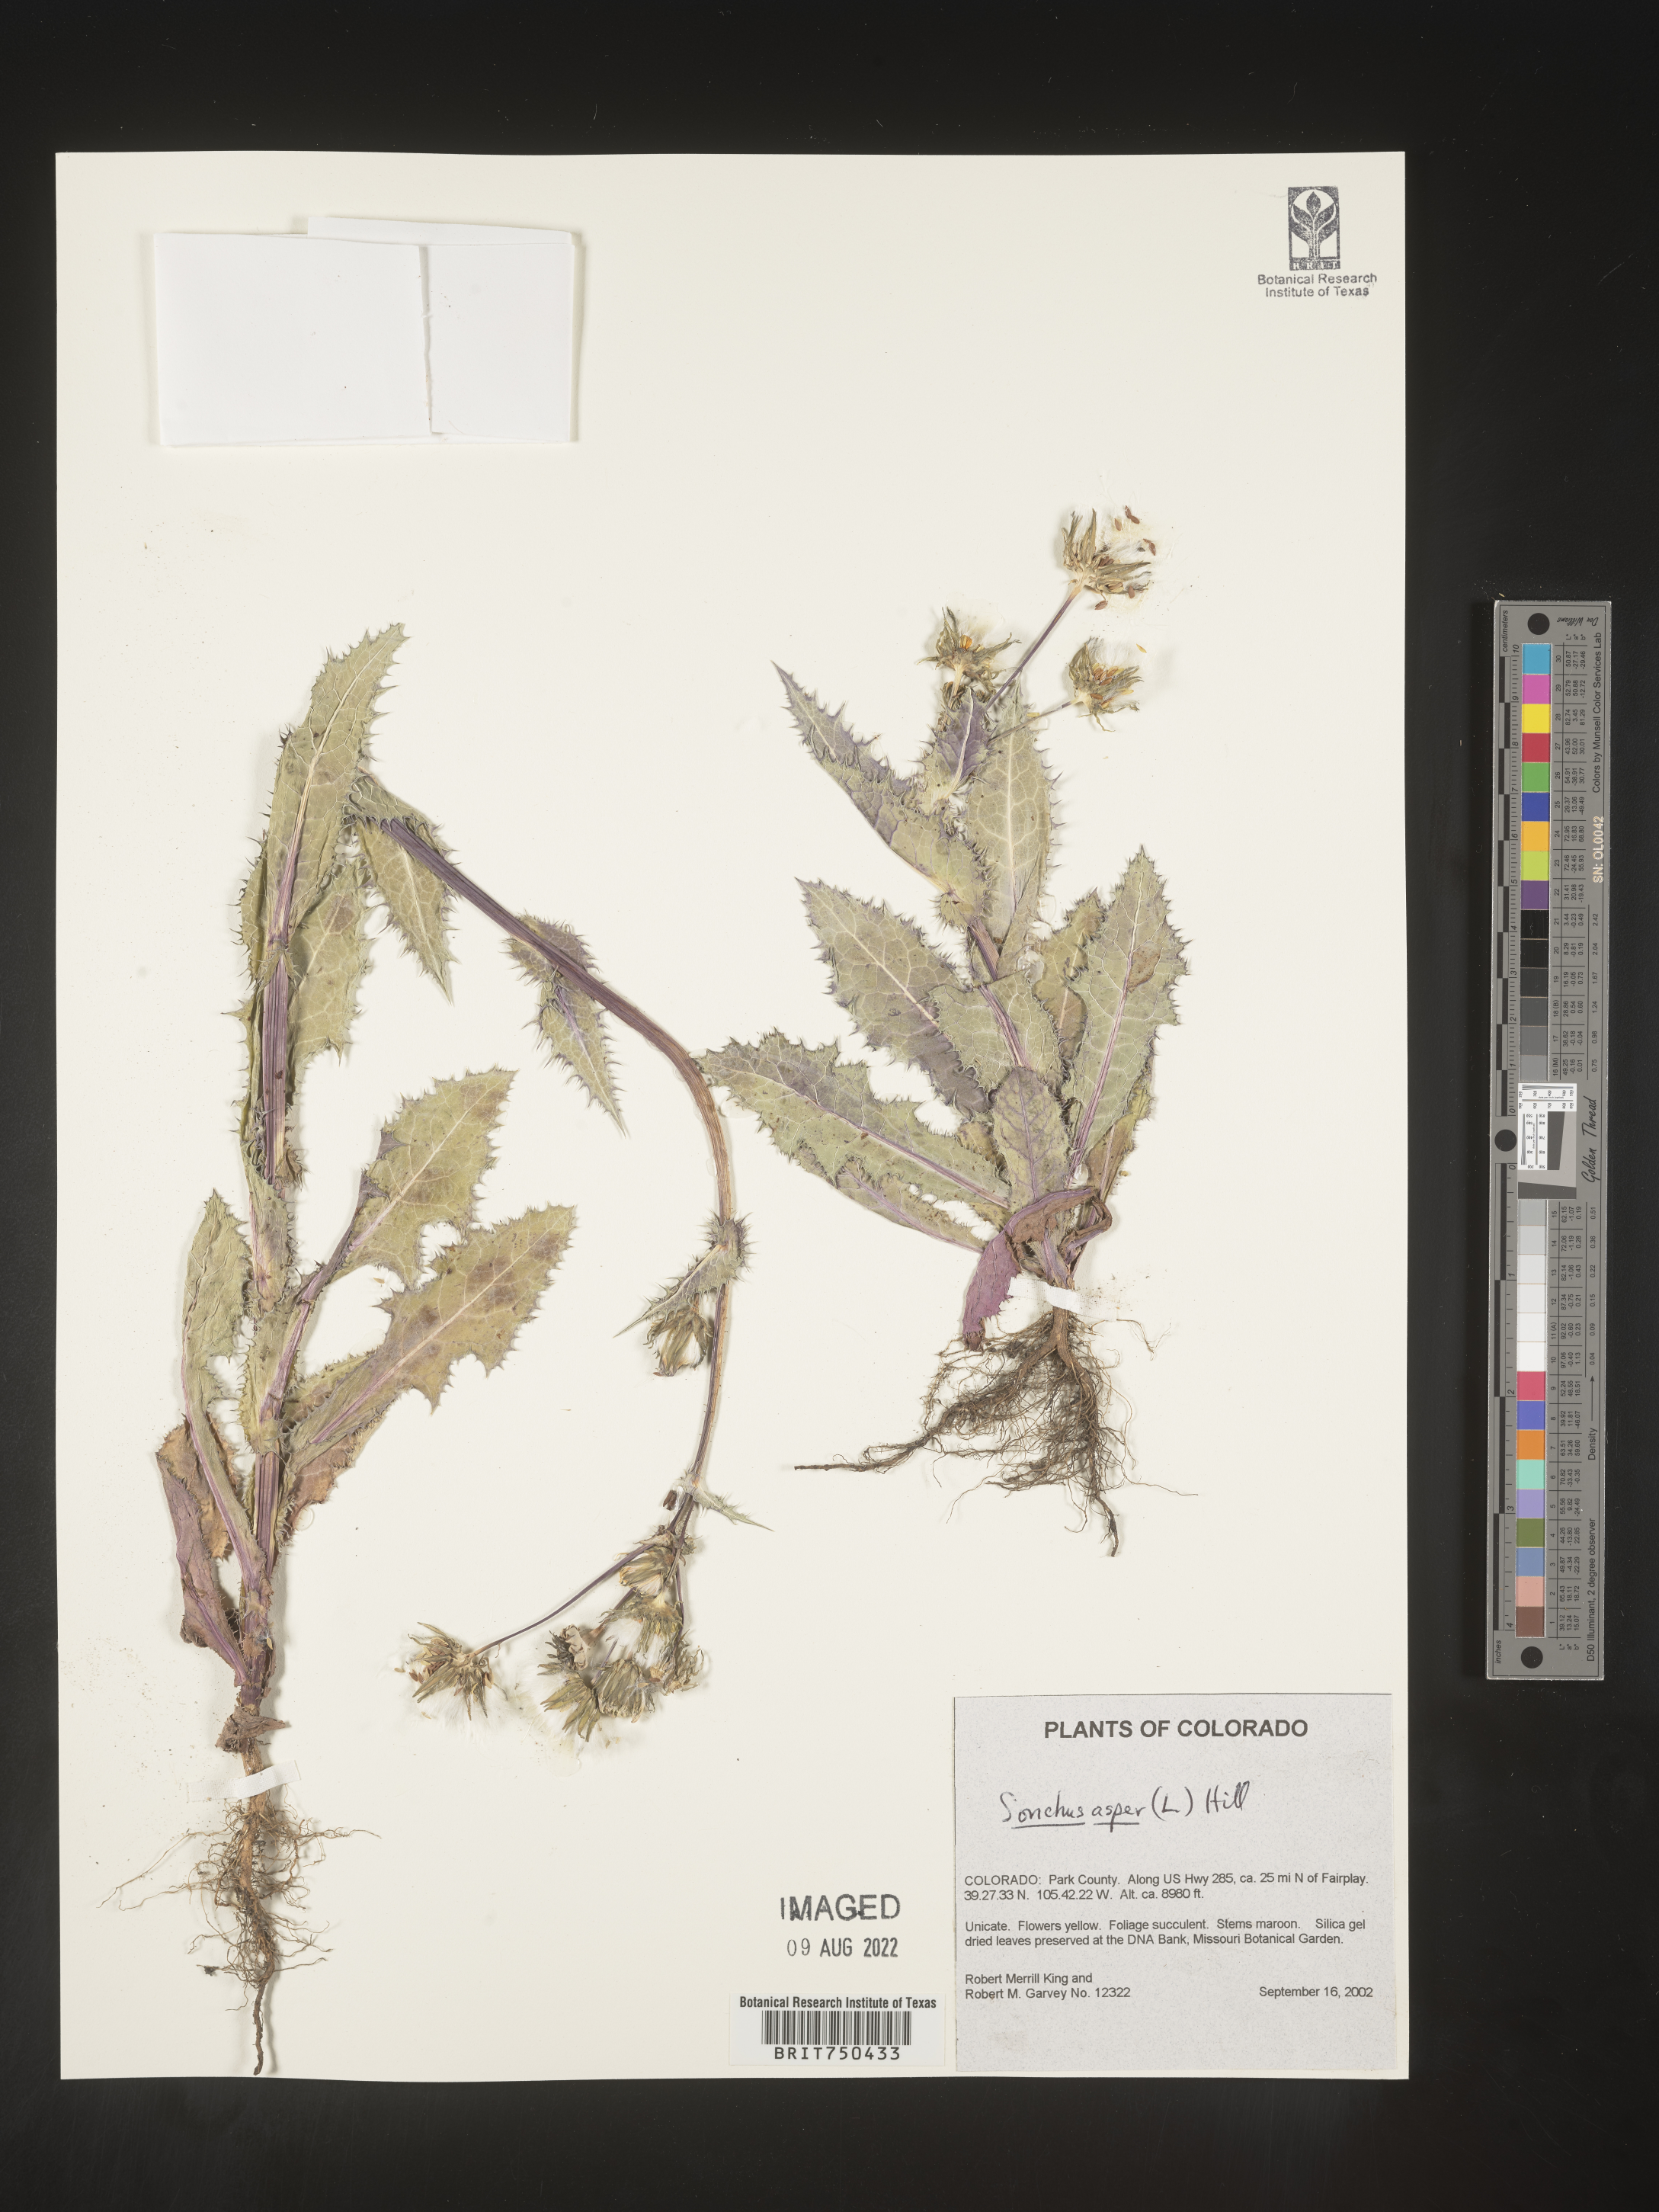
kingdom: Plantae
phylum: Tracheophyta
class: Magnoliopsida
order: Asterales
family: Asteraceae
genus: Sonchus
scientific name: Sonchus asper
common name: Prickly sow-thistle
